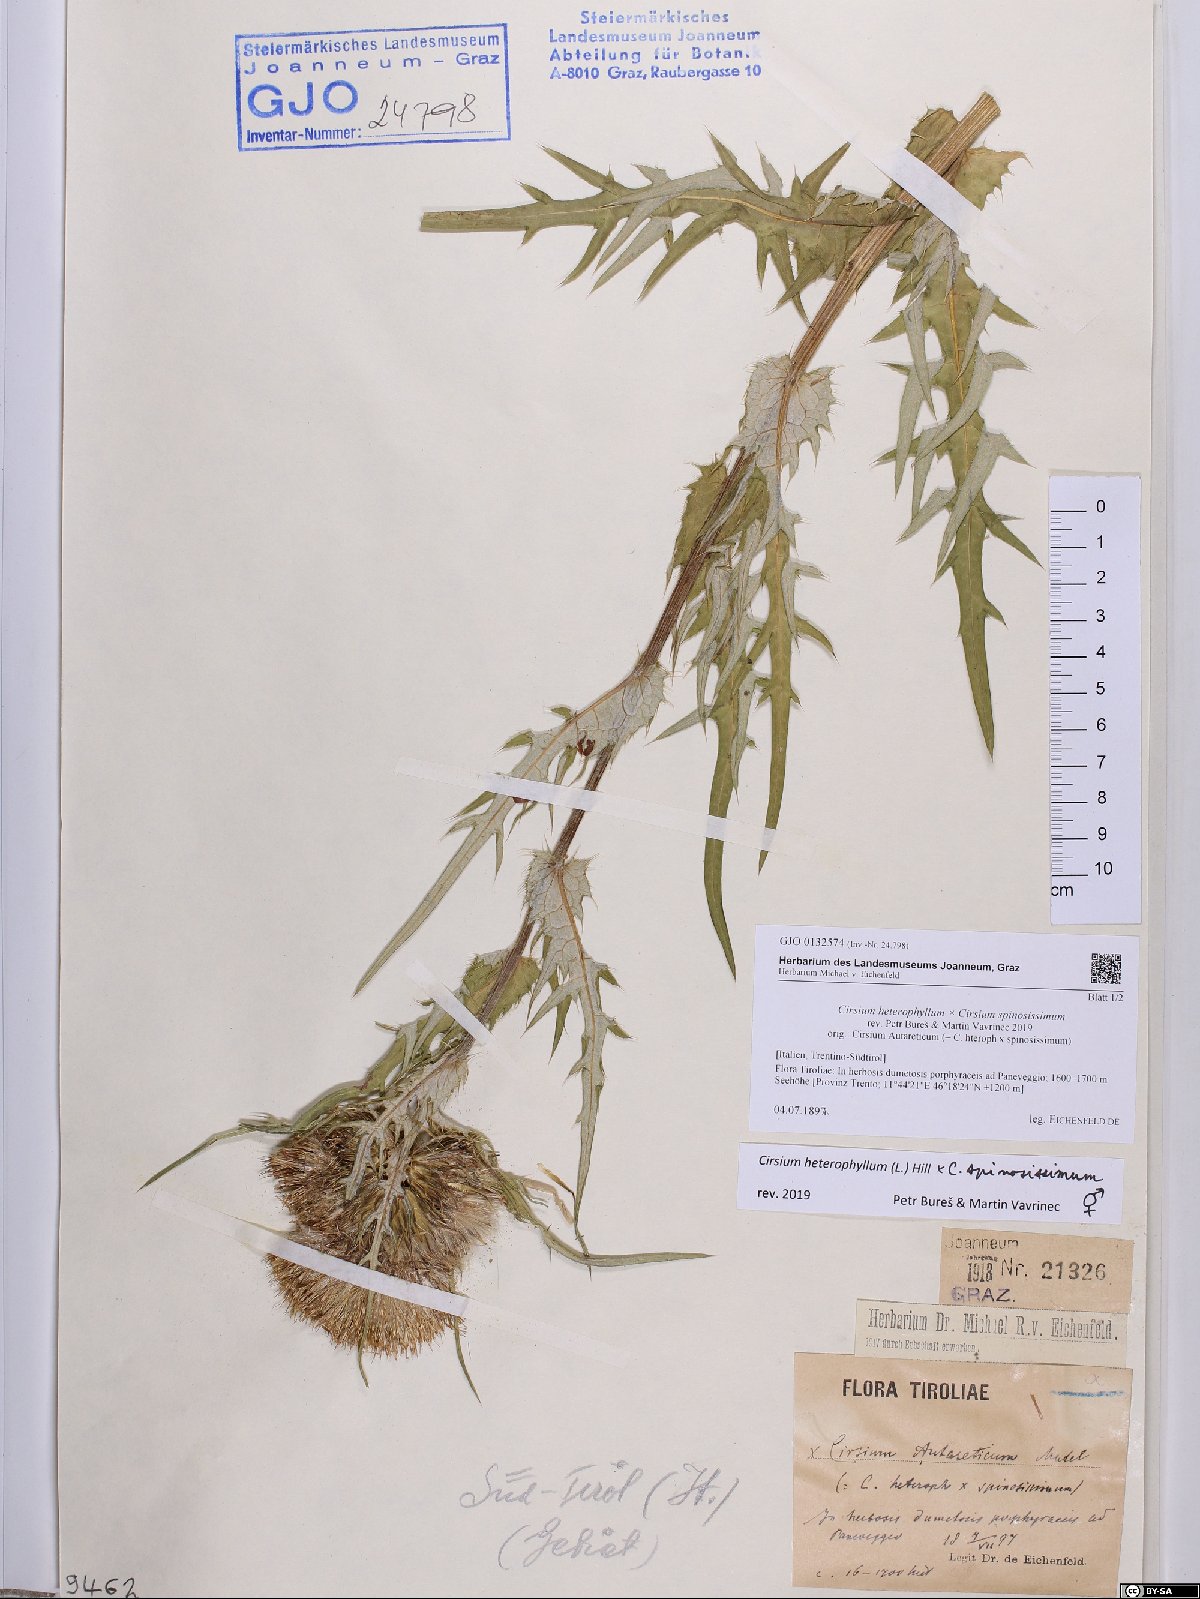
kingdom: Plantae
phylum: Tracheophyta
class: Magnoliopsida
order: Asterales
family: Asteraceae
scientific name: Asteraceae
